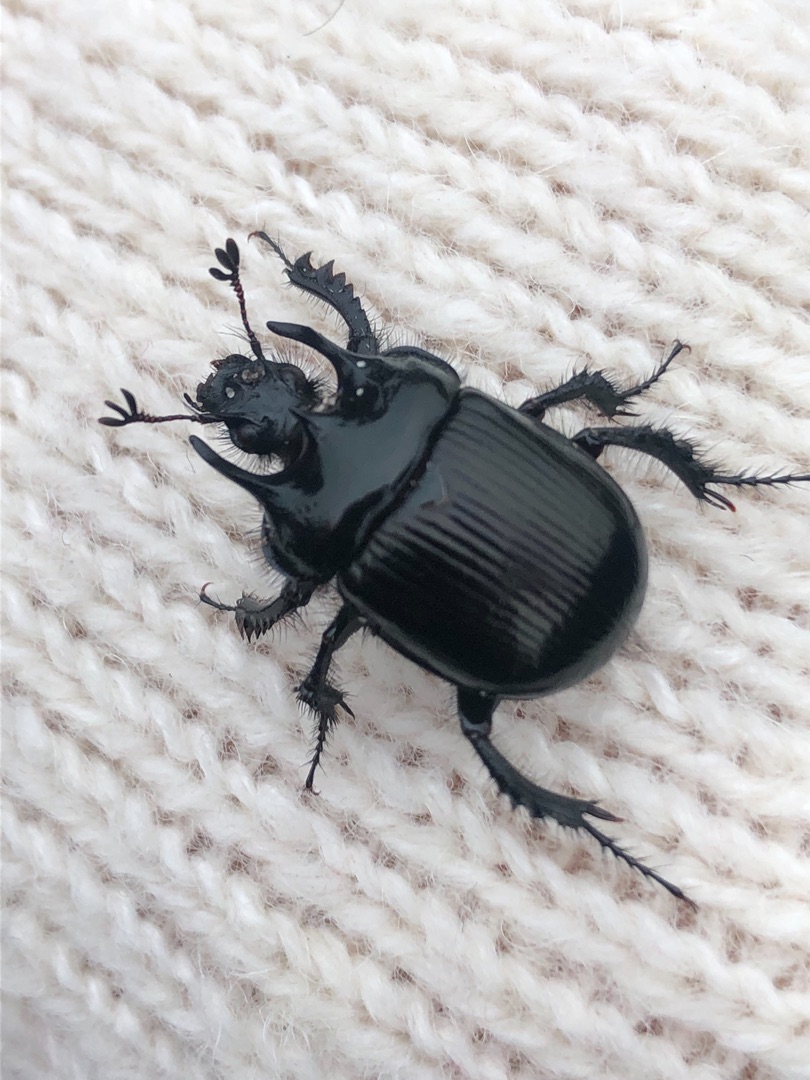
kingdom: Animalia
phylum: Arthropoda
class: Insecta
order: Coleoptera
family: Geotrupidae
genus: Typhaeus
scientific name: Typhaeus typhoeus
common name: Trehornet skarnbasse
